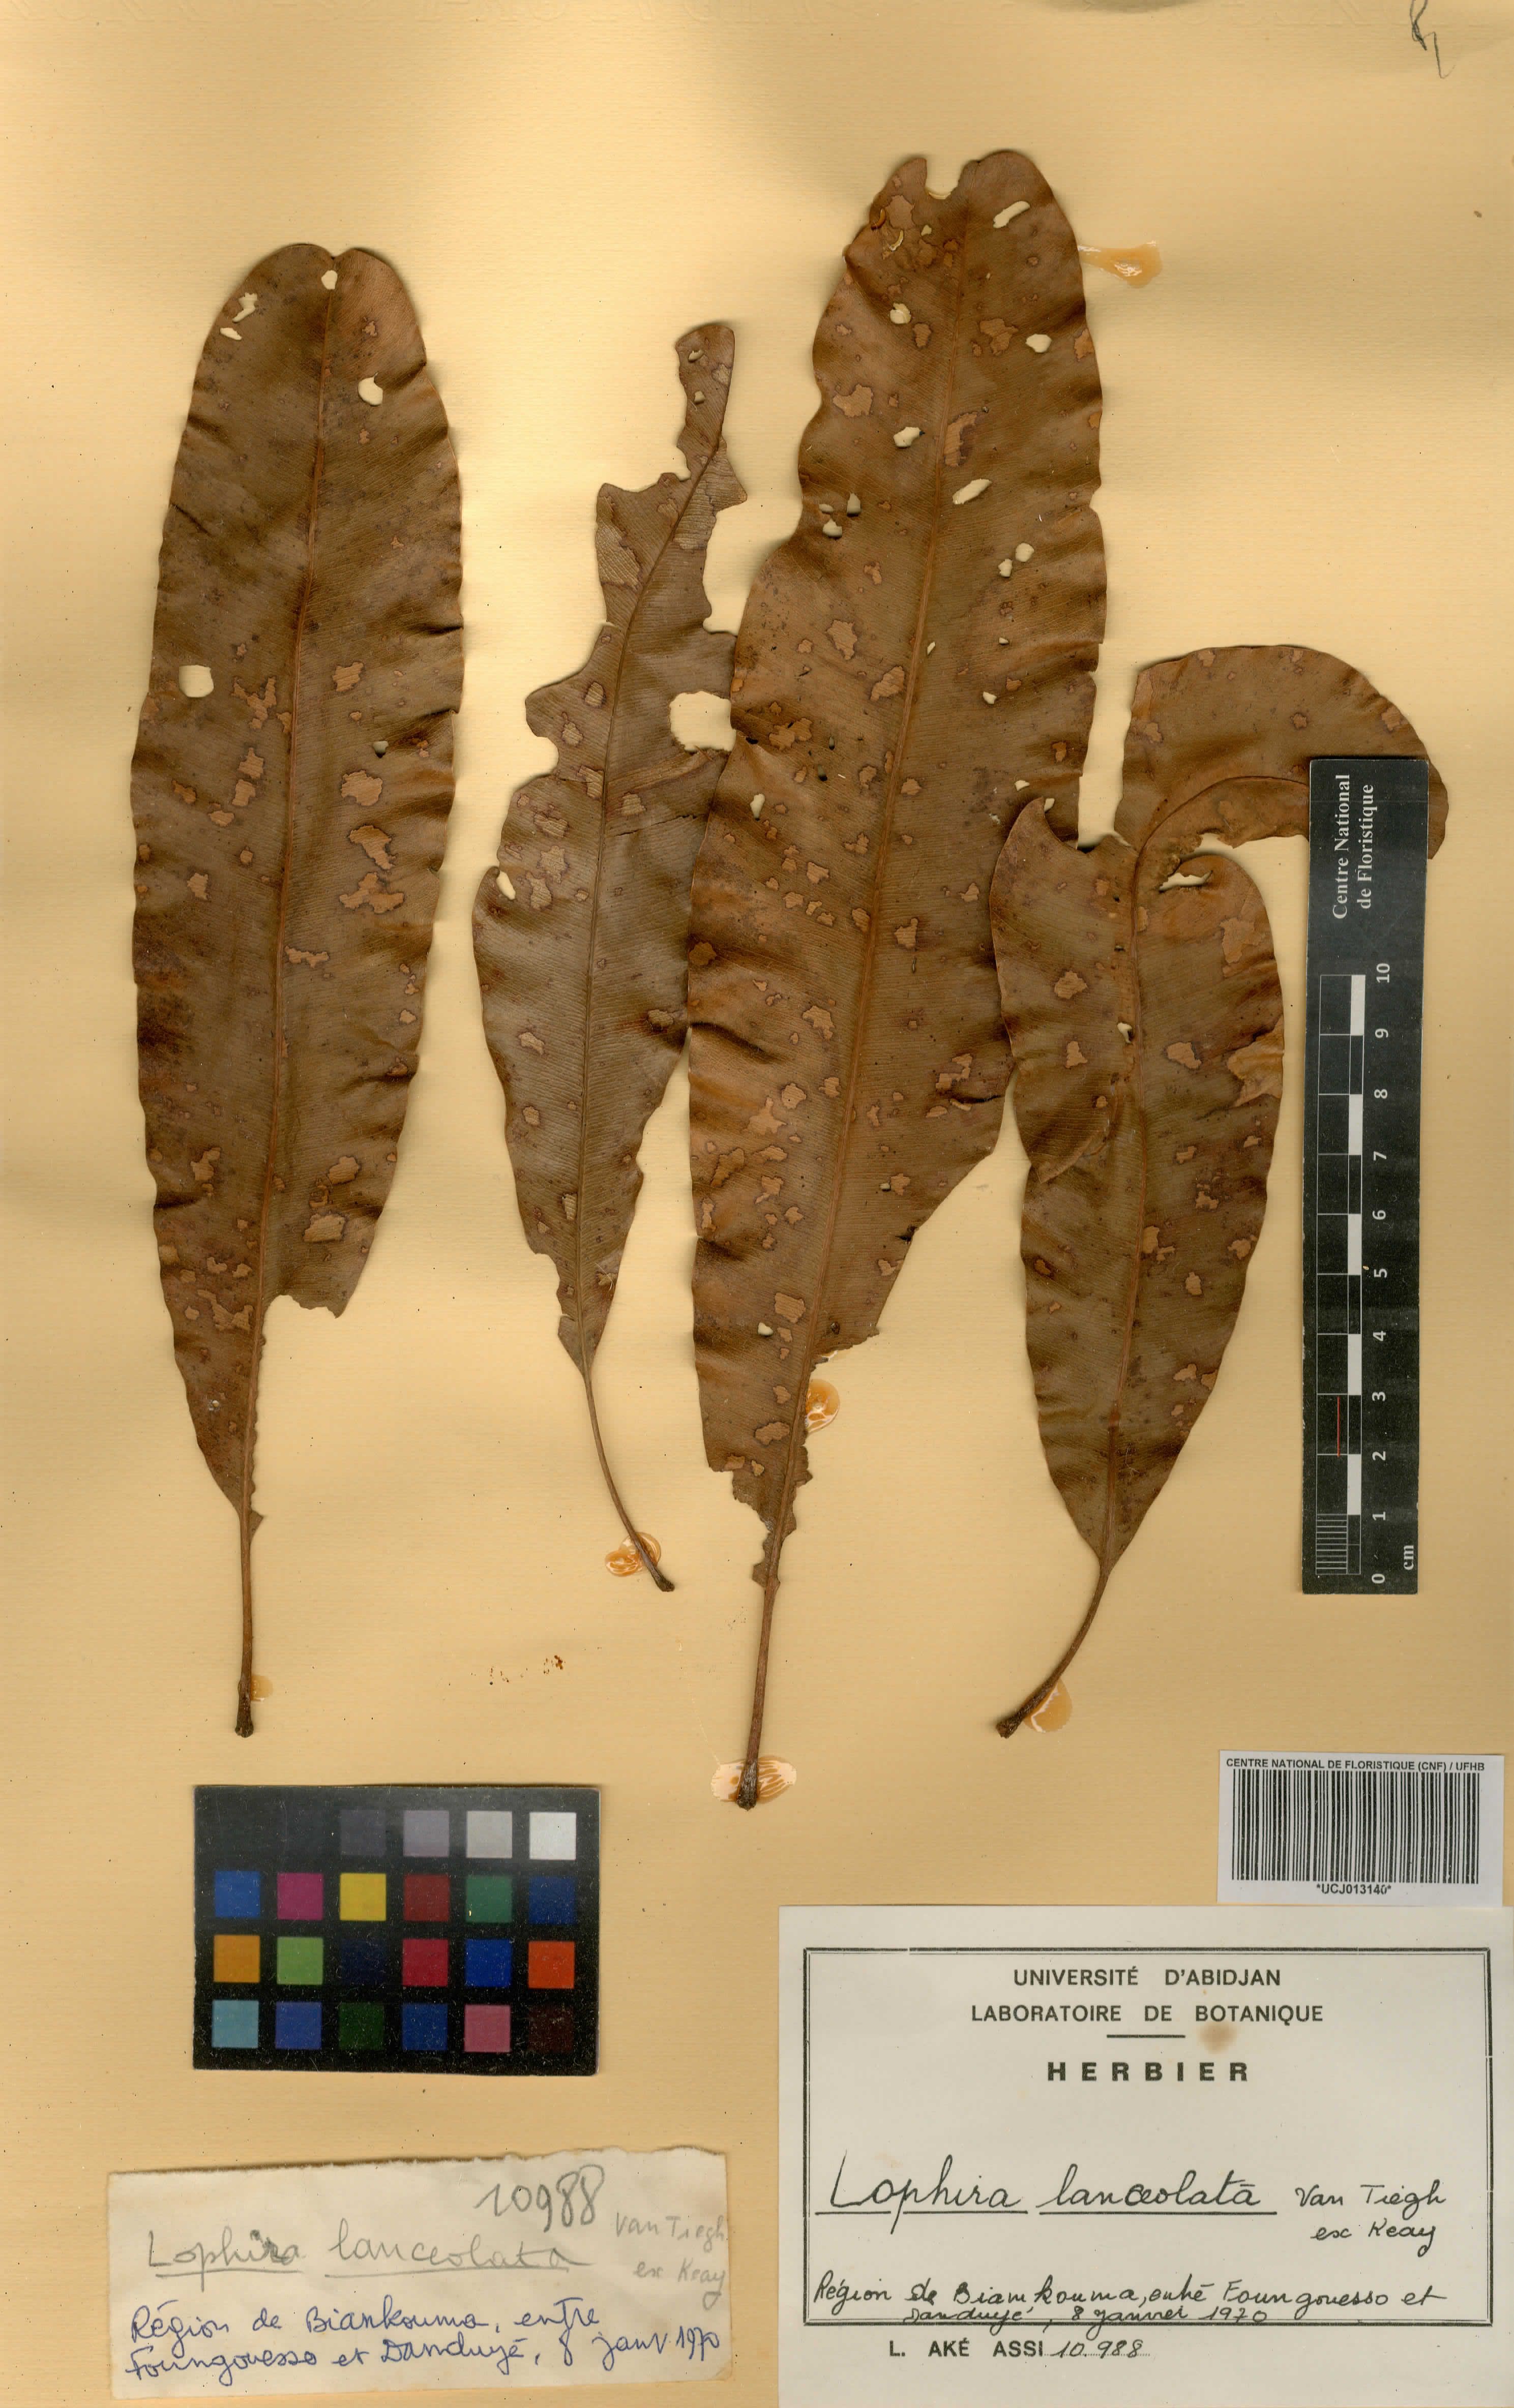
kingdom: Plantae
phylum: Tracheophyta
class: Magnoliopsida
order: Malpighiales
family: Ochnaceae
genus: Lophira
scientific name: Lophira lanceolata
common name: Dwarf red ironwood
